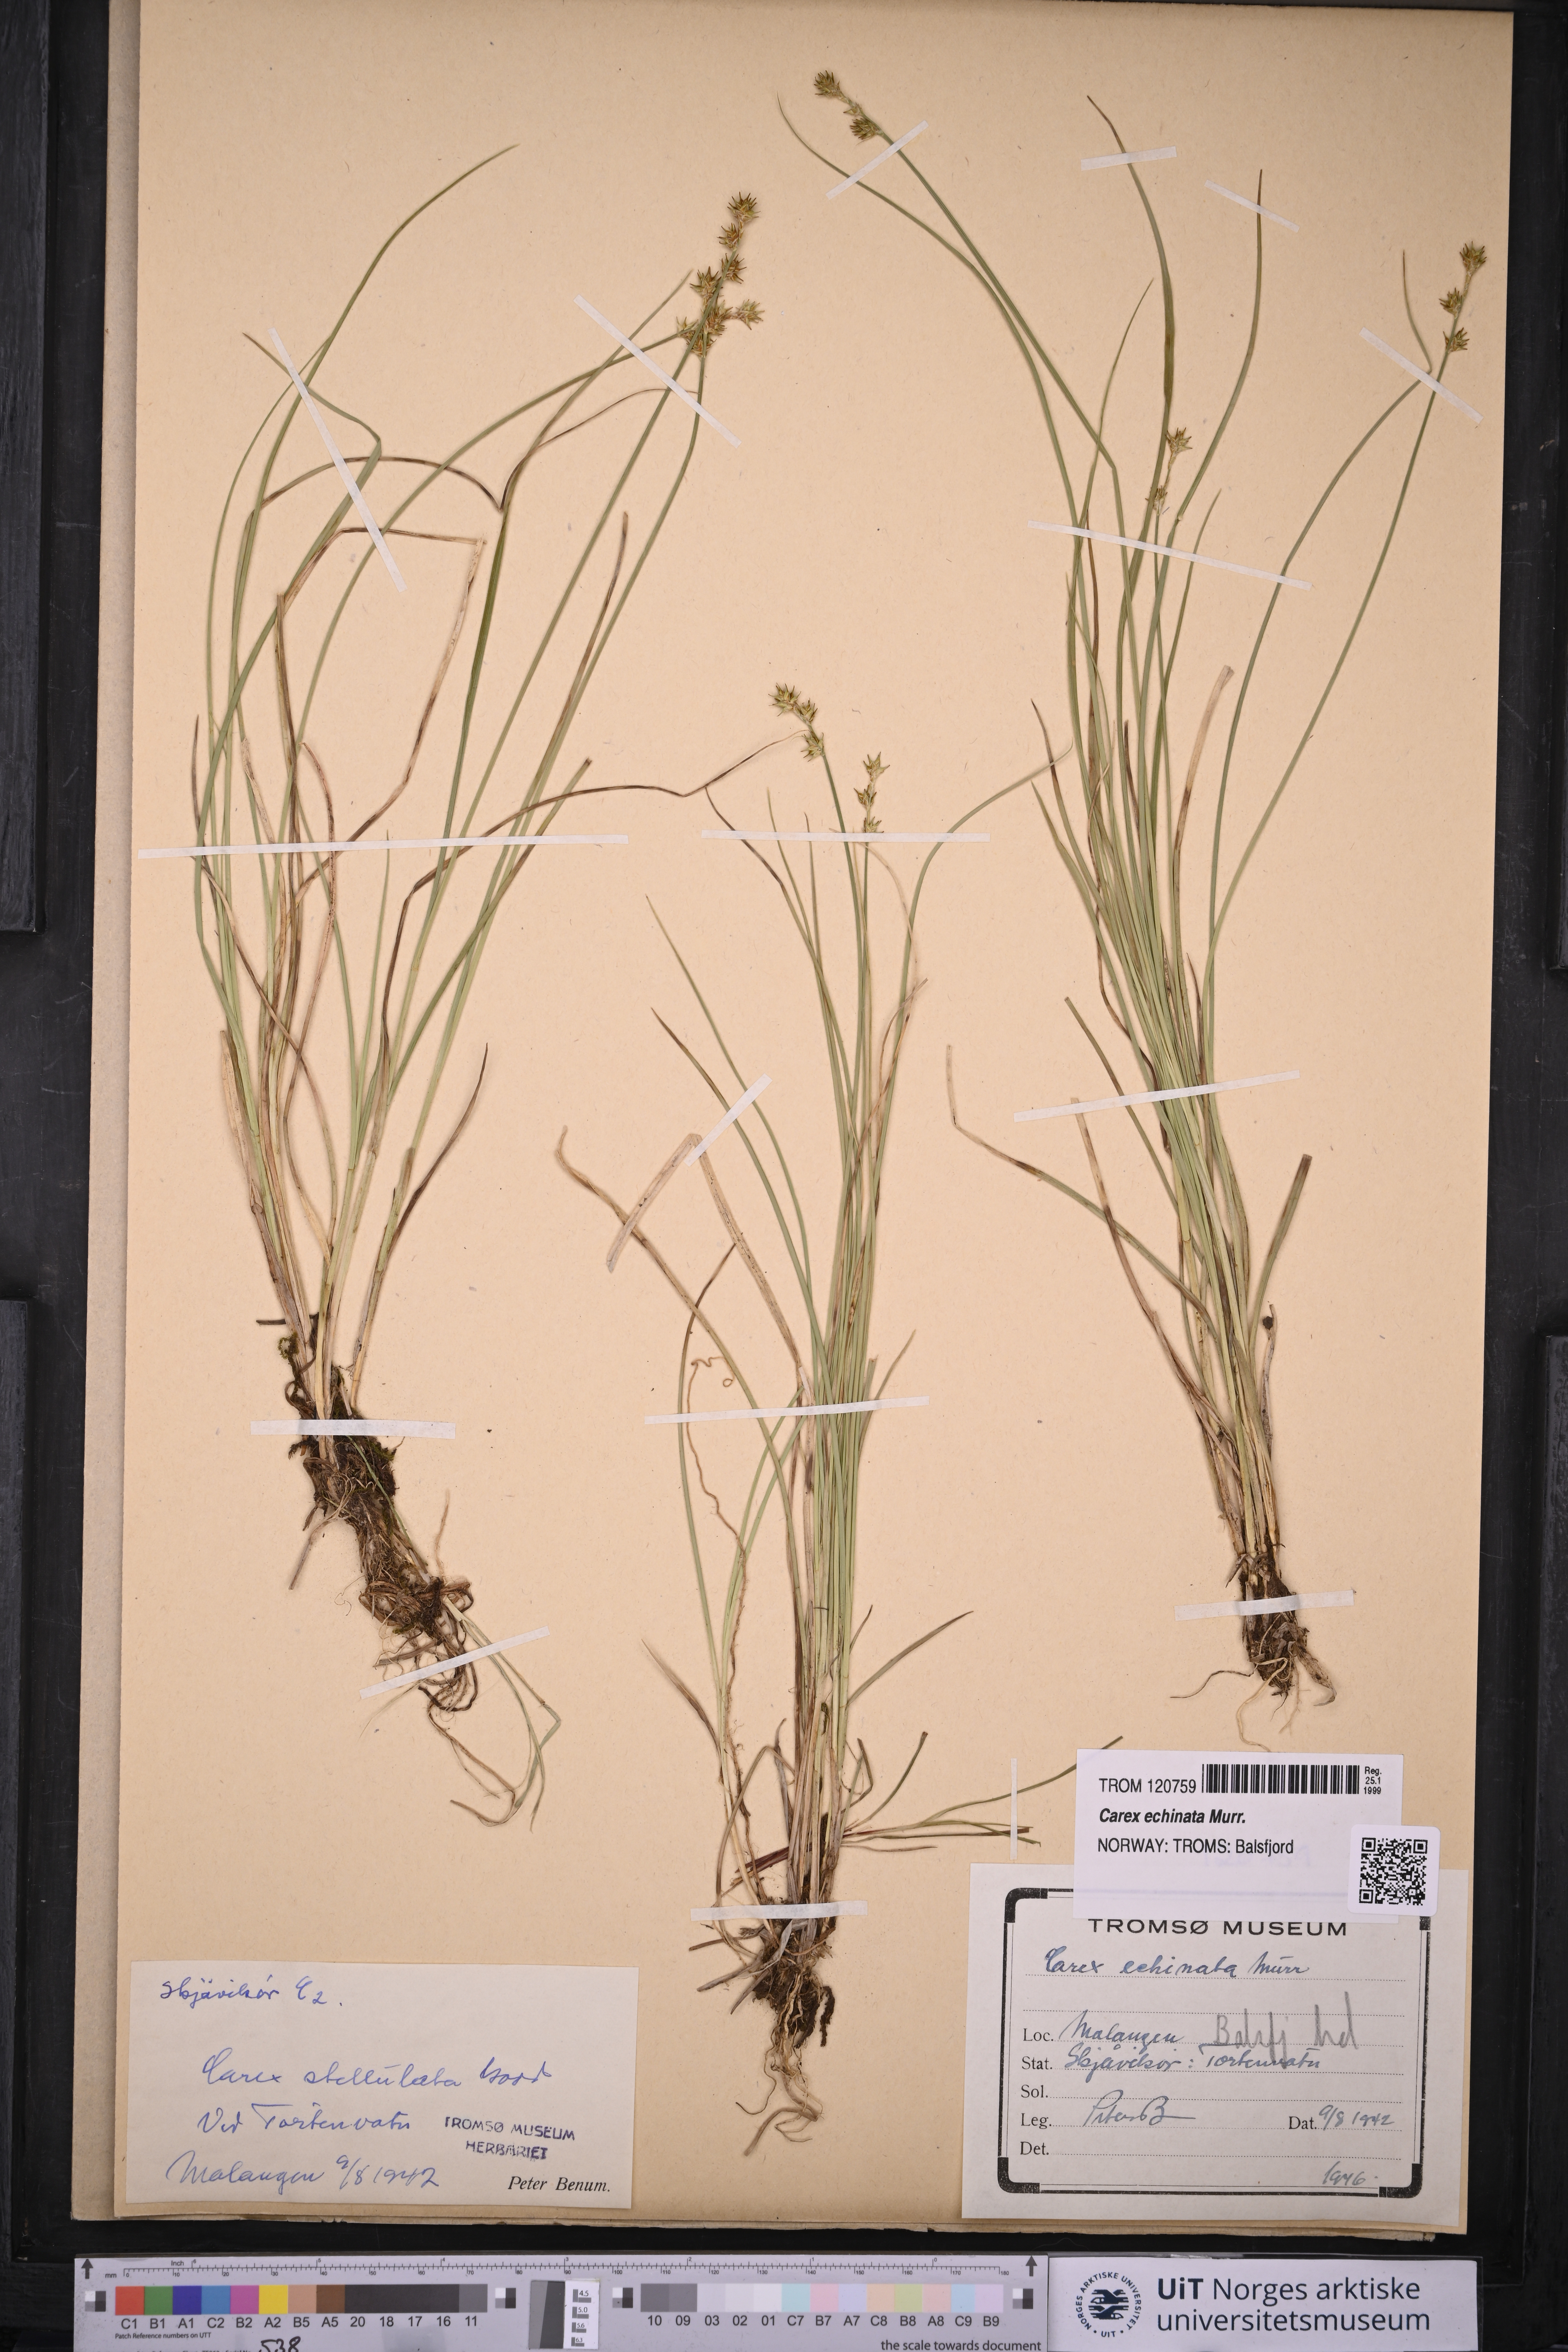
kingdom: Plantae
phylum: Tracheophyta
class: Liliopsida
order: Poales
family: Cyperaceae
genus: Carex
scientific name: Carex echinata
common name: Star sedge
